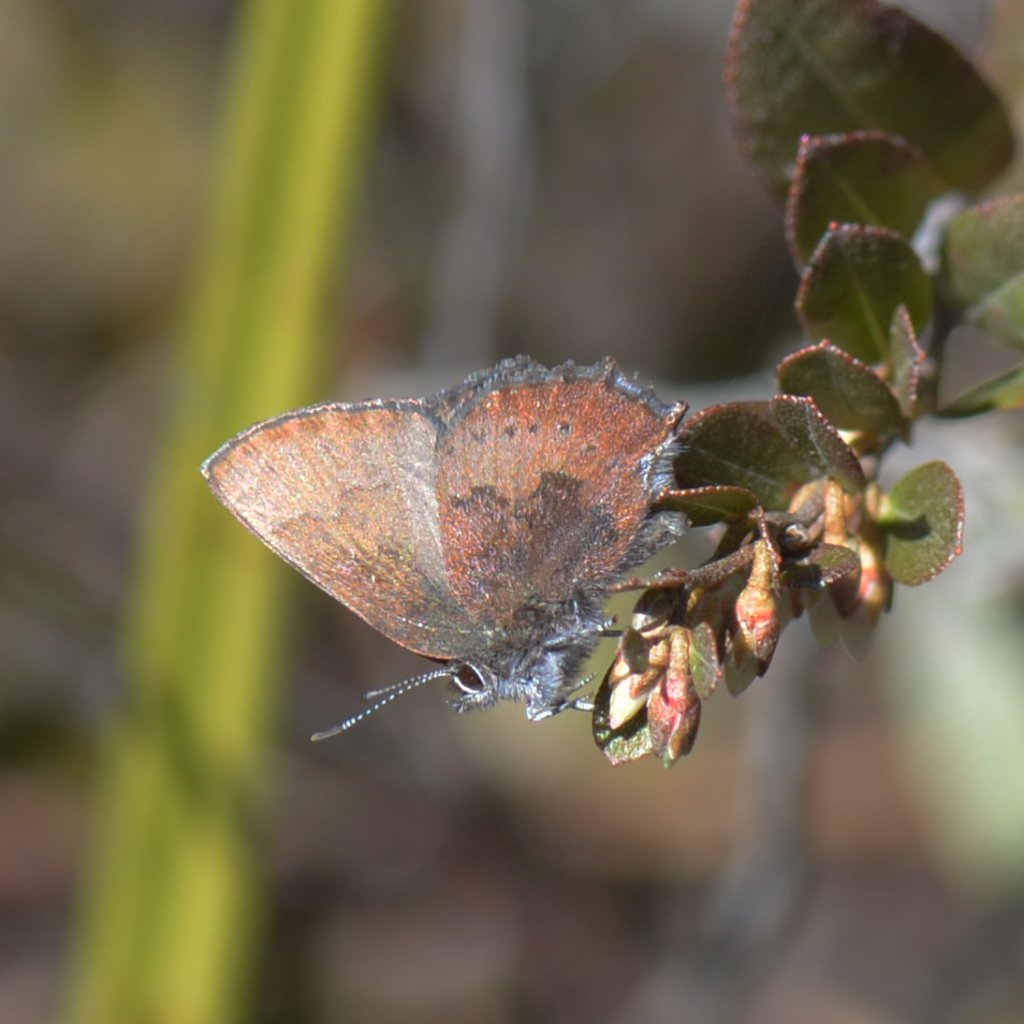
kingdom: Animalia
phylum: Arthropoda
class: Insecta
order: Lepidoptera
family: Lycaenidae
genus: Incisalia
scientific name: Incisalia irioides
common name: Brown Elfin
